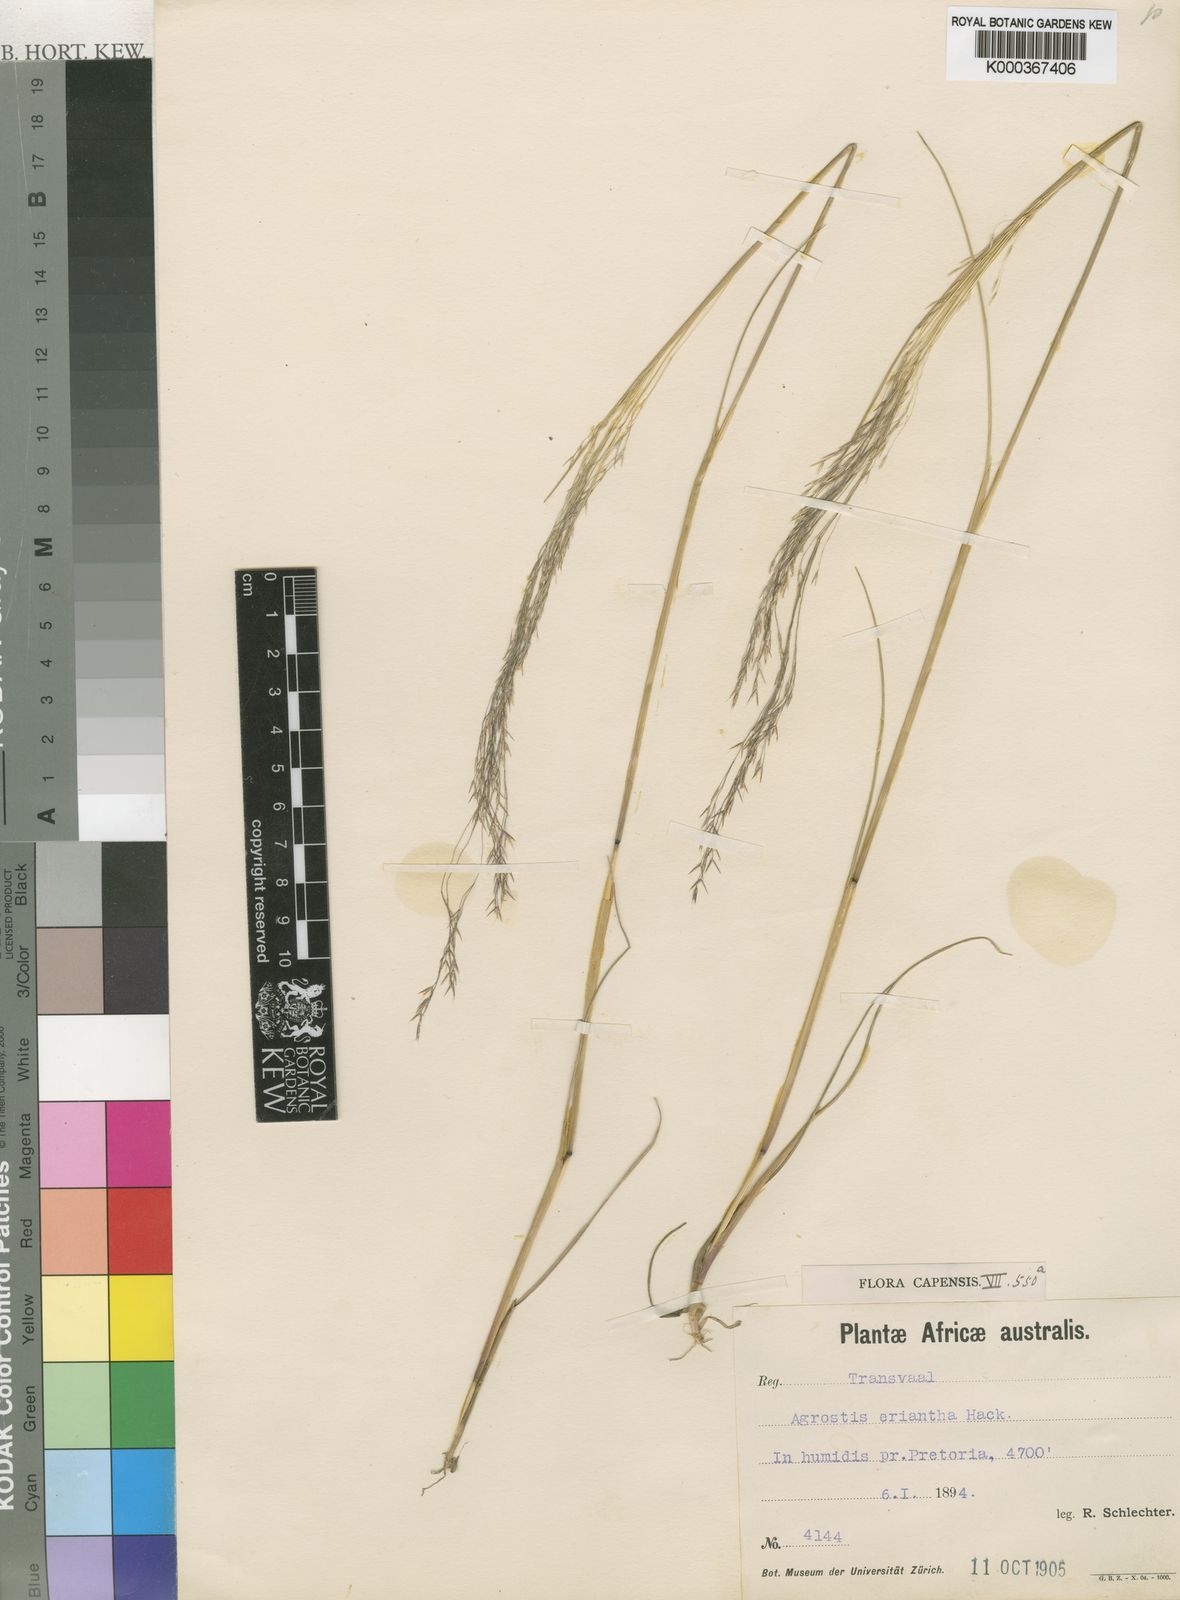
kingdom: Plantae
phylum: Tracheophyta
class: Liliopsida
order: Poales
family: Poaceae
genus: Lachnagrostis
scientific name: Lachnagrostis eriantha
